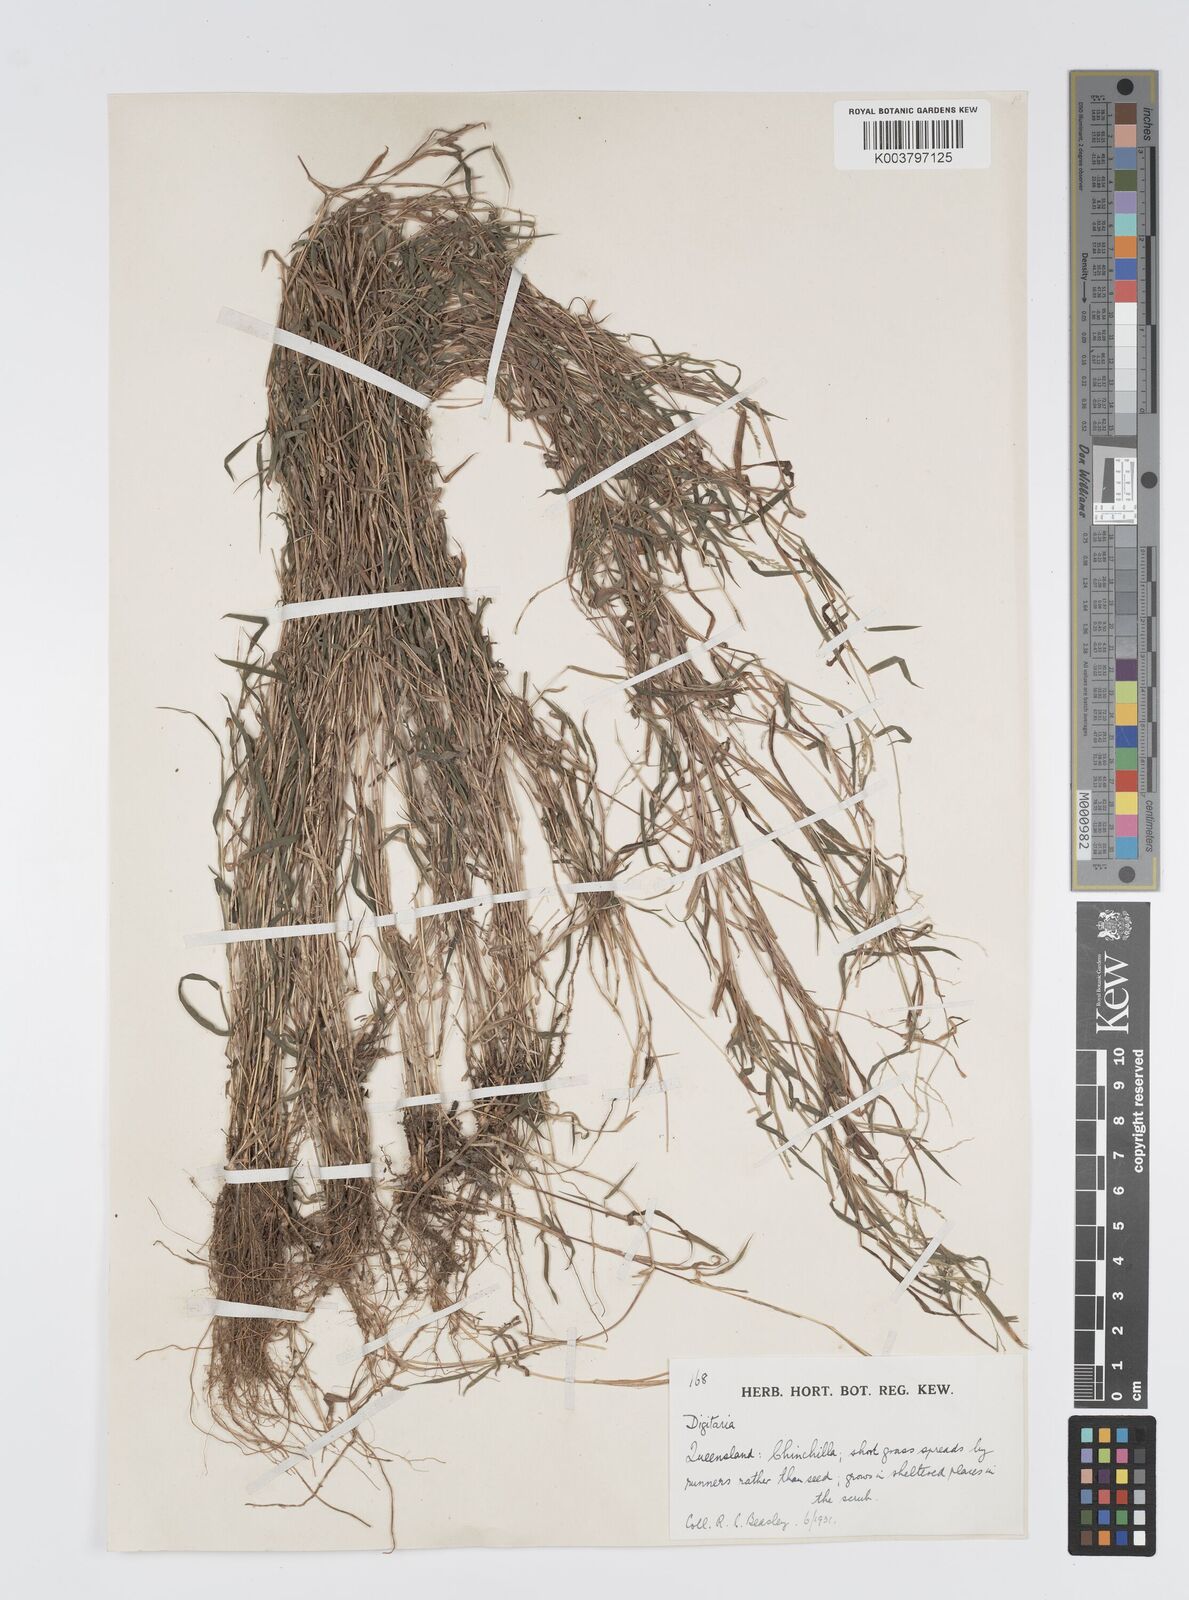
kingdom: Plantae
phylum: Tracheophyta
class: Liliopsida
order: Poales
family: Poaceae
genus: Digitaria
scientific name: Digitaria diffusa
